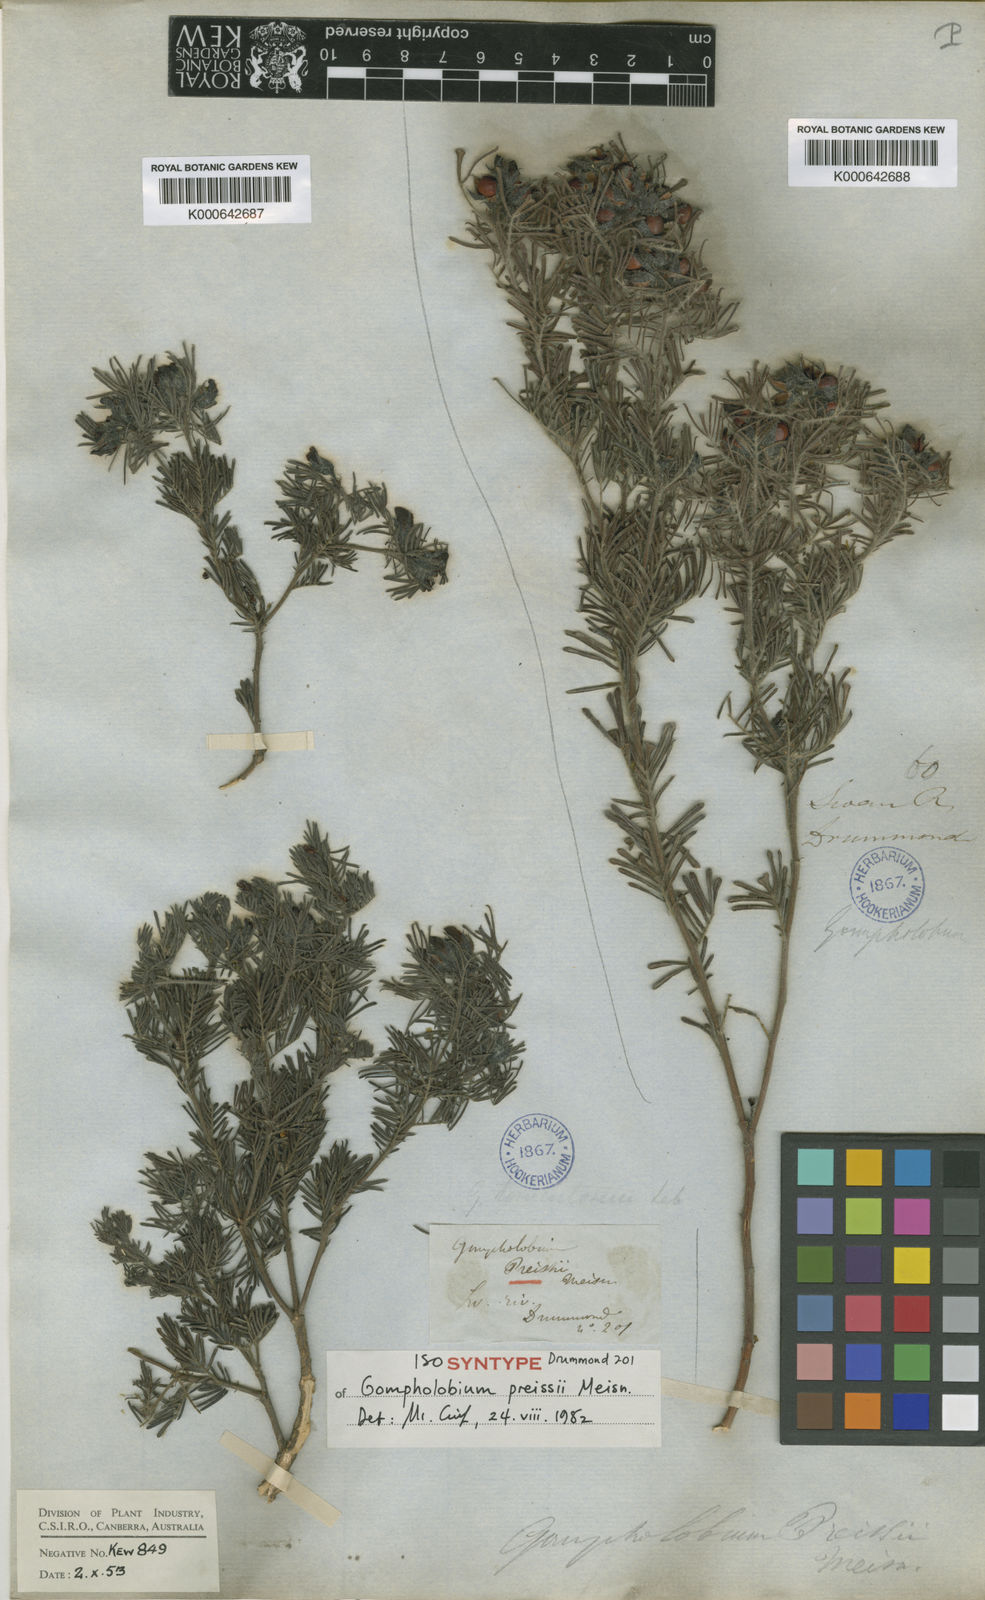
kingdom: Plantae
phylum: Tracheophyta
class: Magnoliopsida
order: Fabales
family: Fabaceae
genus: Gompholobium
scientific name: Gompholobium preissii
